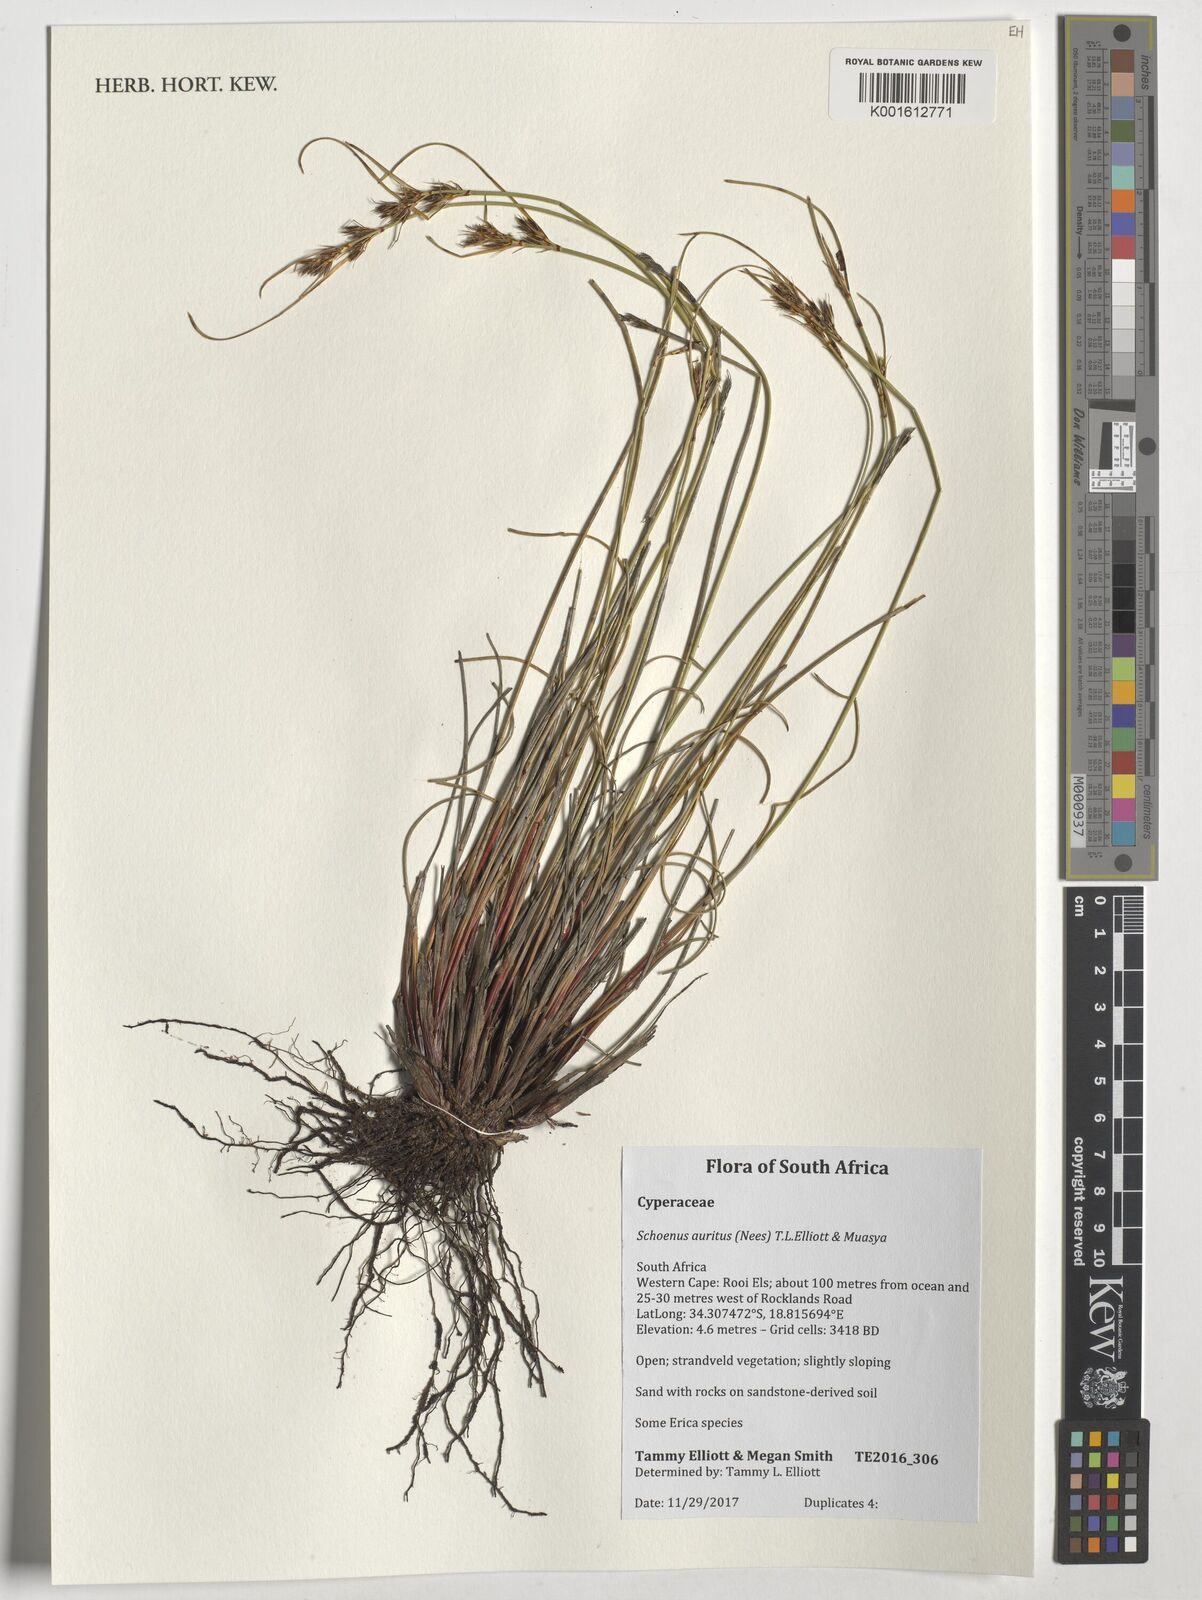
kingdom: Plantae
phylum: Tracheophyta
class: Liliopsida
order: Poales
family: Cyperaceae
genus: Schoenus
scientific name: Schoenus
